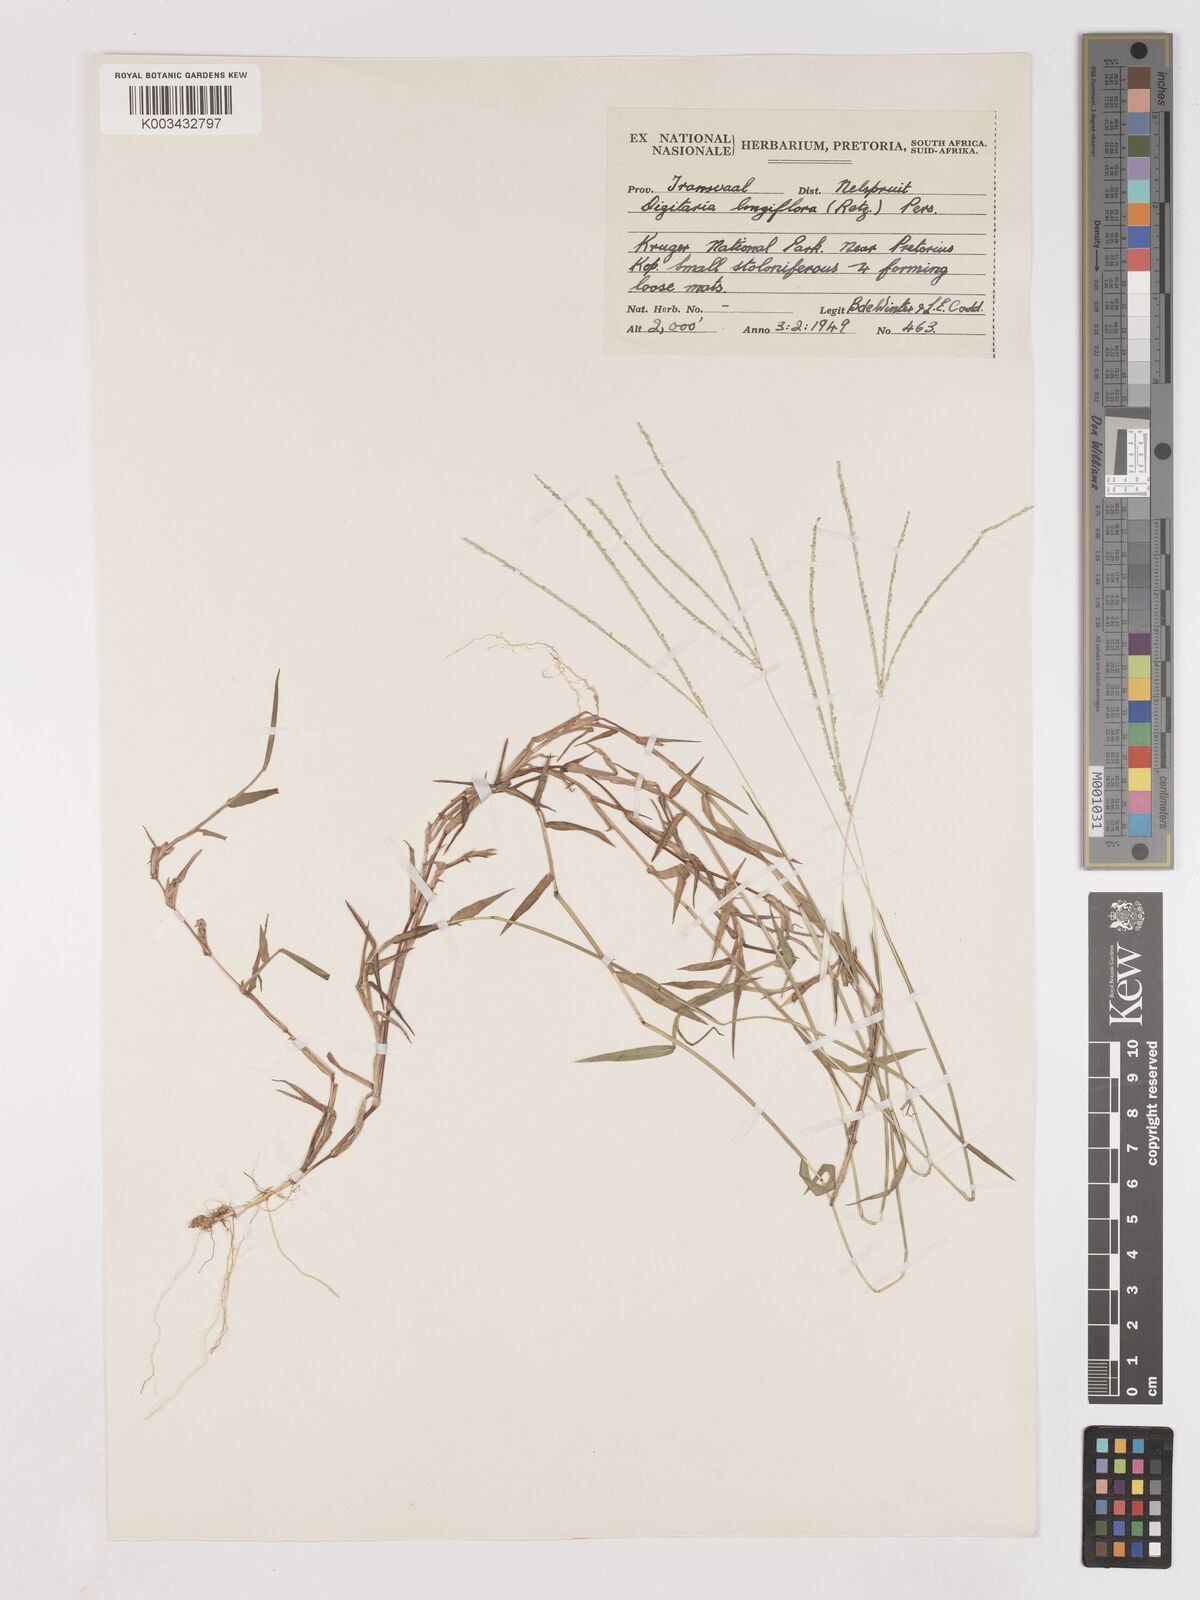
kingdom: Plantae
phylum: Tracheophyta
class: Liliopsida
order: Poales
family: Poaceae
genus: Digitaria
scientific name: Digitaria longiflora
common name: Wire crabgrass
